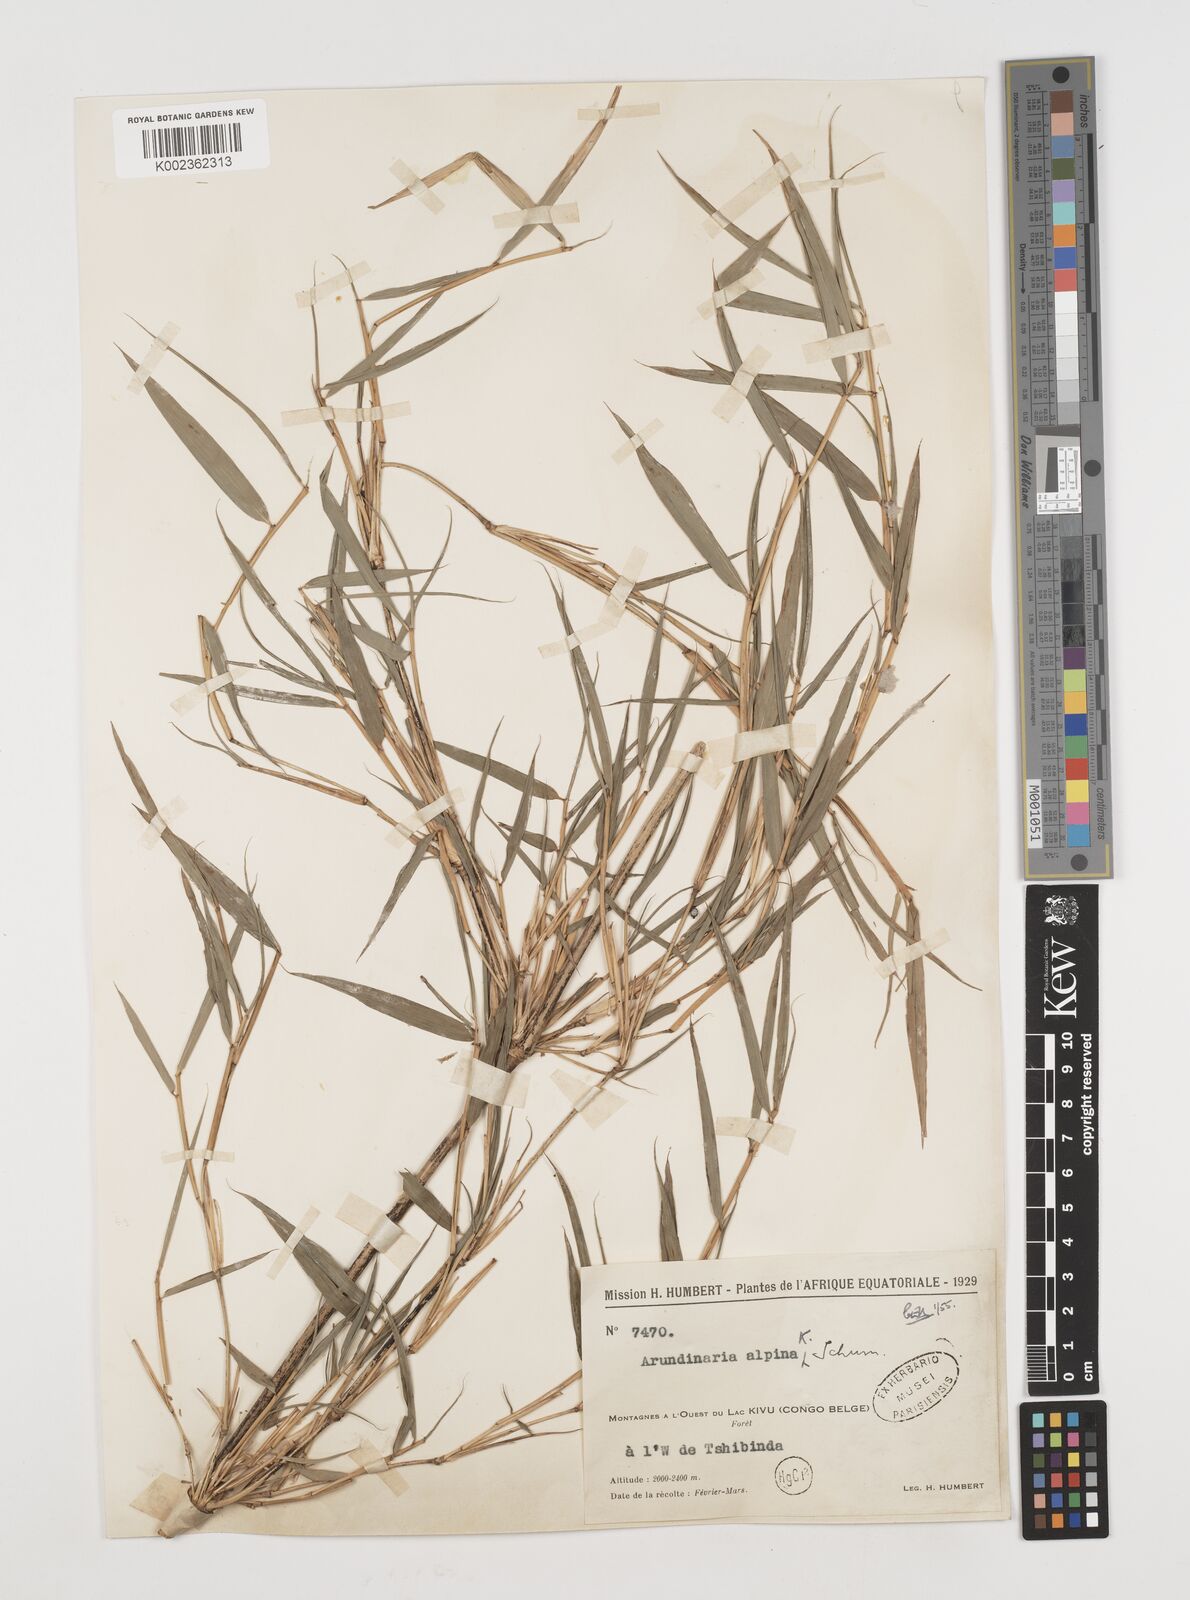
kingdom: Plantae
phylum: Tracheophyta
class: Liliopsida
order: Poales
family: Poaceae
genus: Oldeania
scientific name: Oldeania alpina
